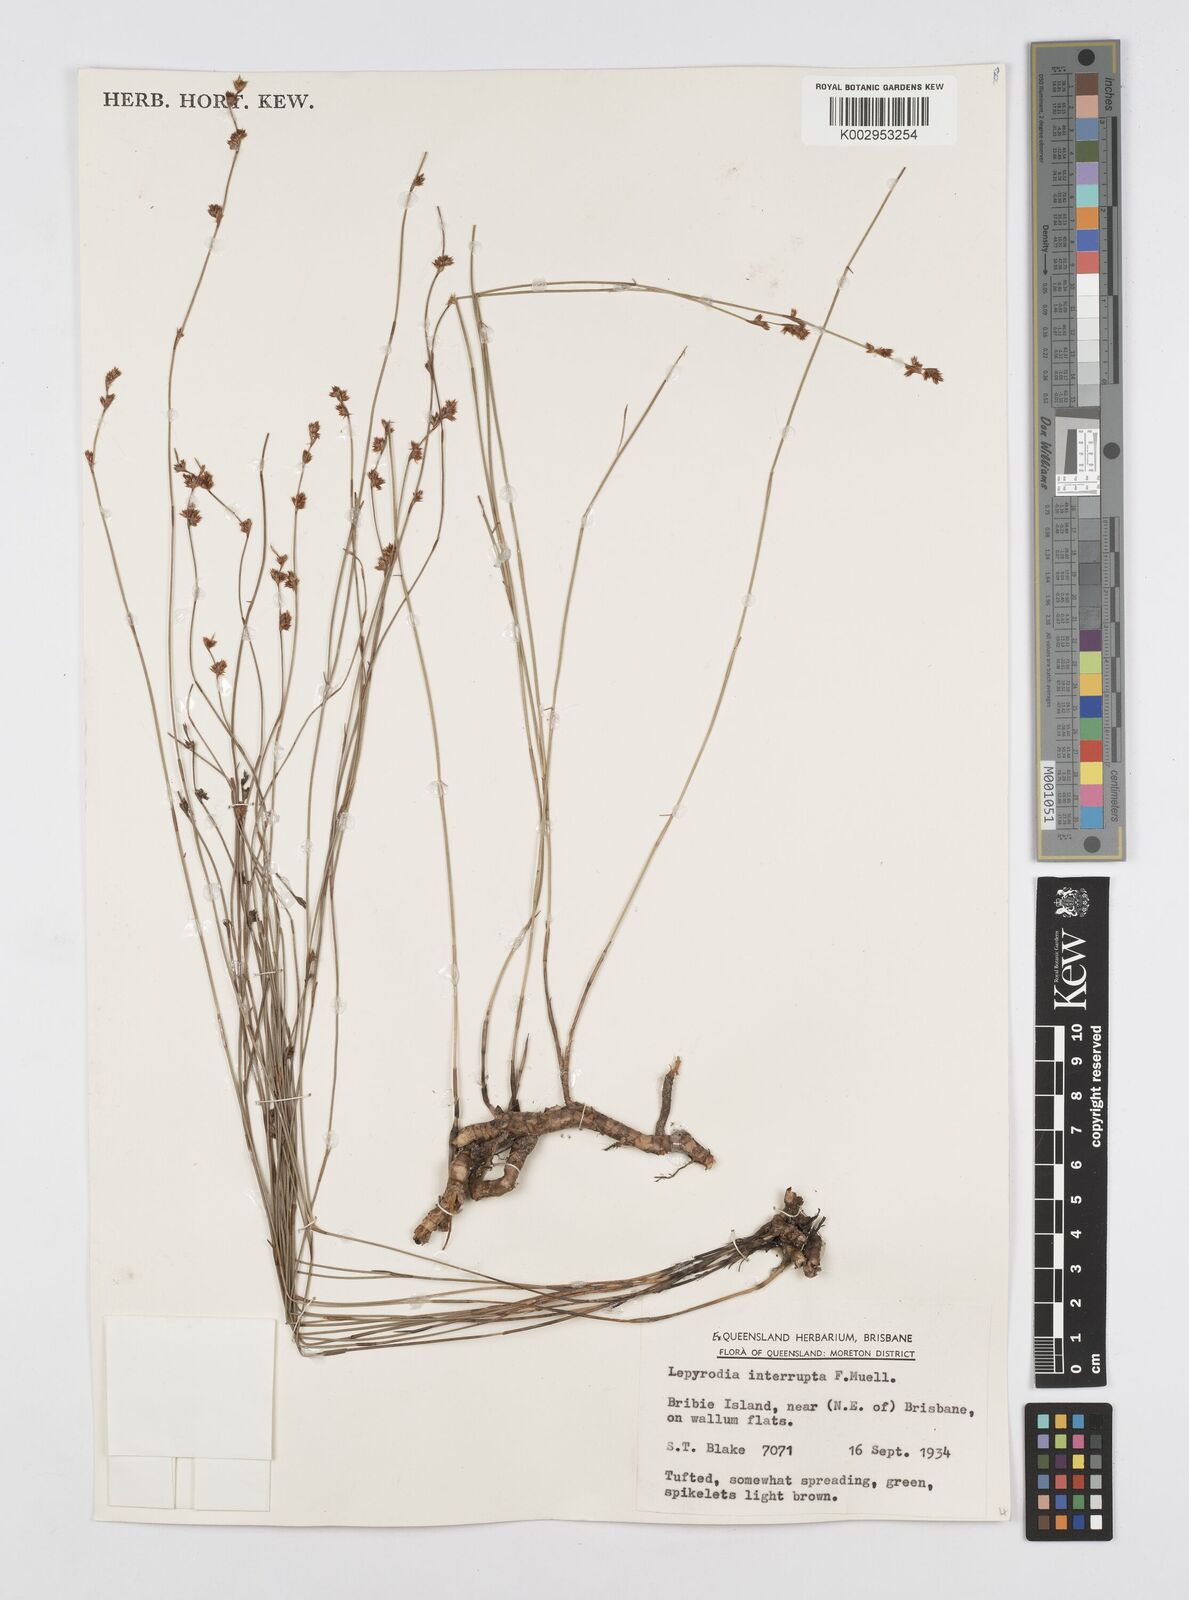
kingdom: Plantae
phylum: Tracheophyta
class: Liliopsida
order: Poales
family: Restionaceae
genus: Sporadanthus
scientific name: Sporadanthus interruptus
